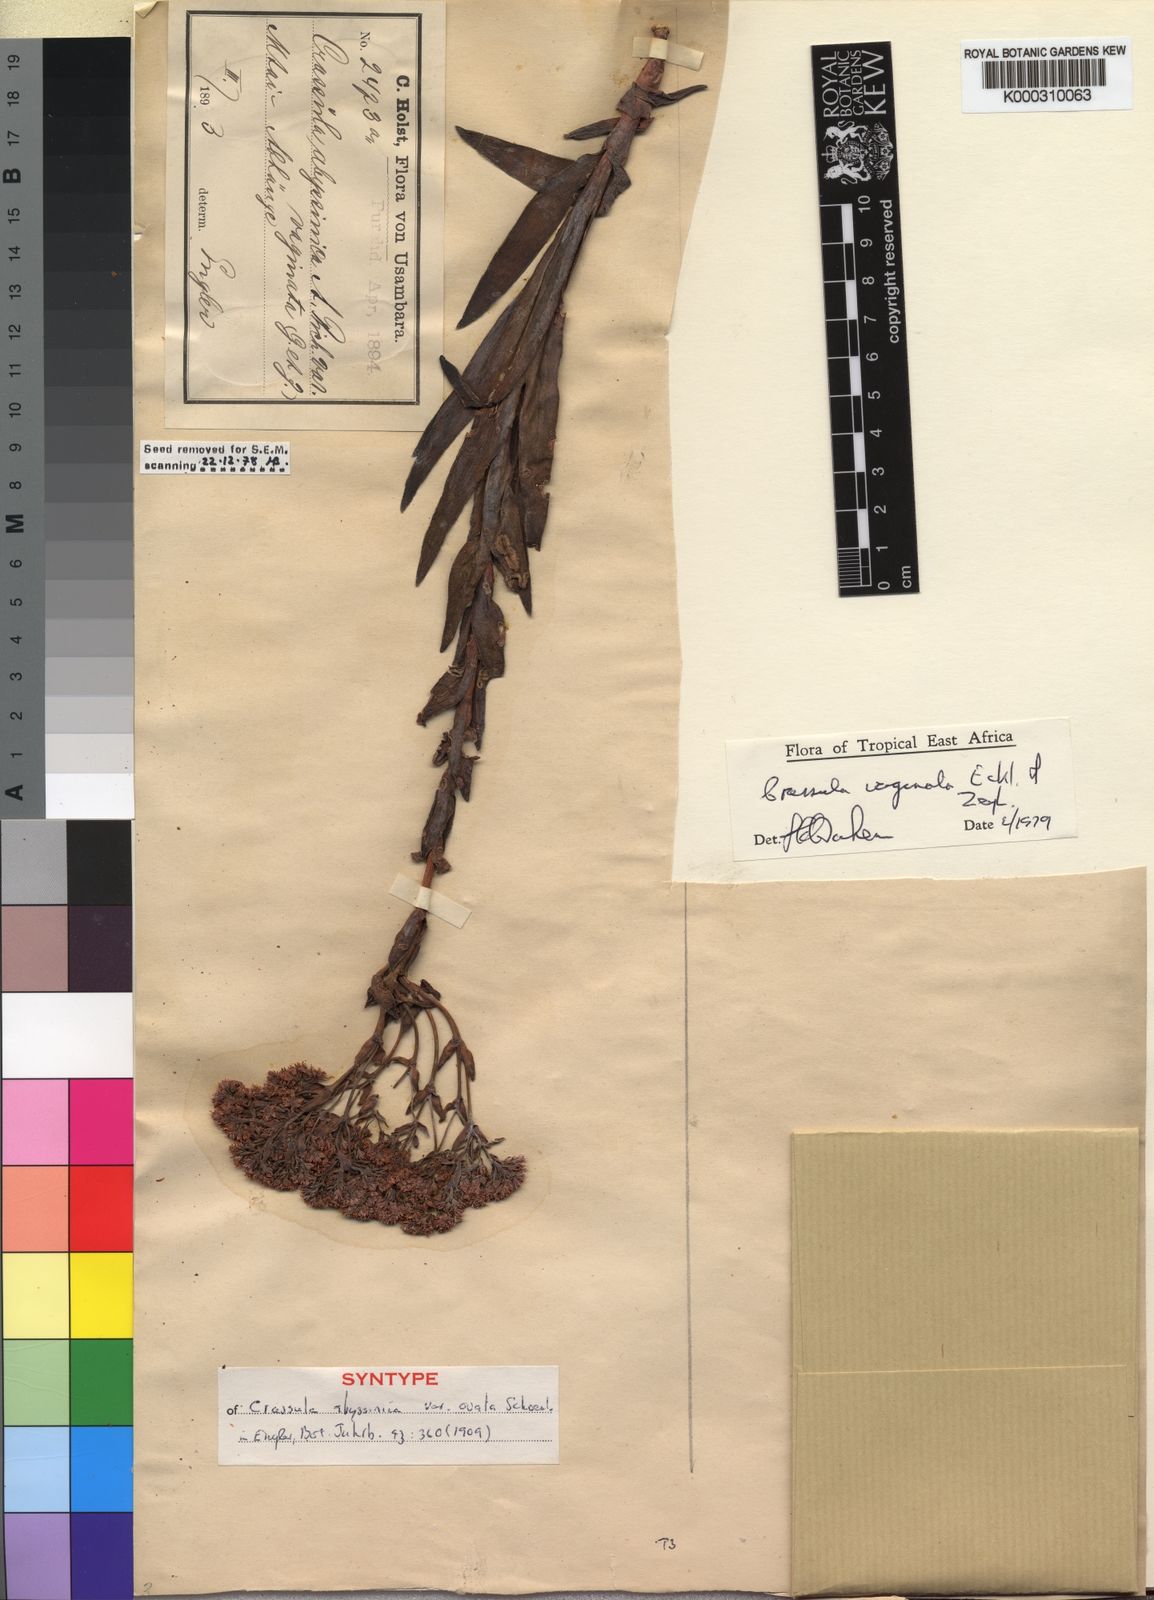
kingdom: Plantae
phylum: Tracheophyta
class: Magnoliopsida
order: Saxifragales
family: Crassulaceae
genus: Crassula
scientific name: Crassula vaginata
